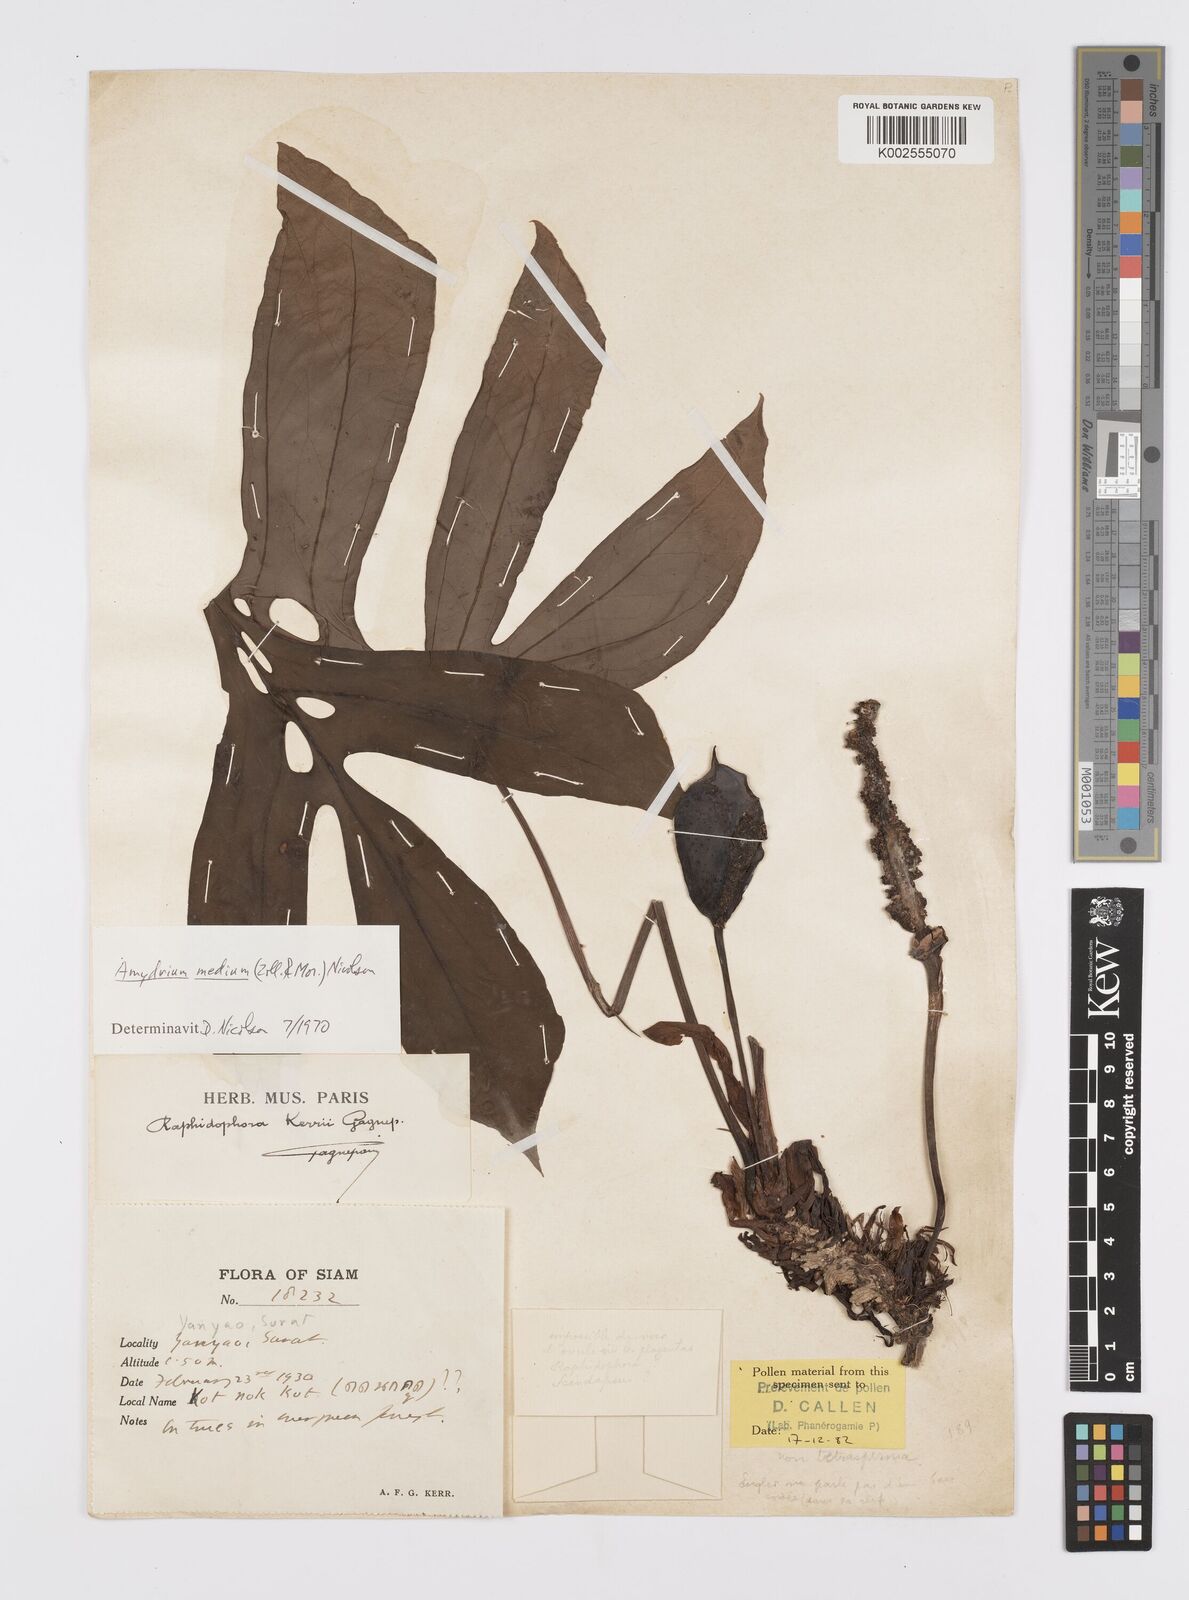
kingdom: Plantae
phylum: Tracheophyta
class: Liliopsida
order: Alismatales
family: Araceae
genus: Amydrium
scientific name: Amydrium medium
